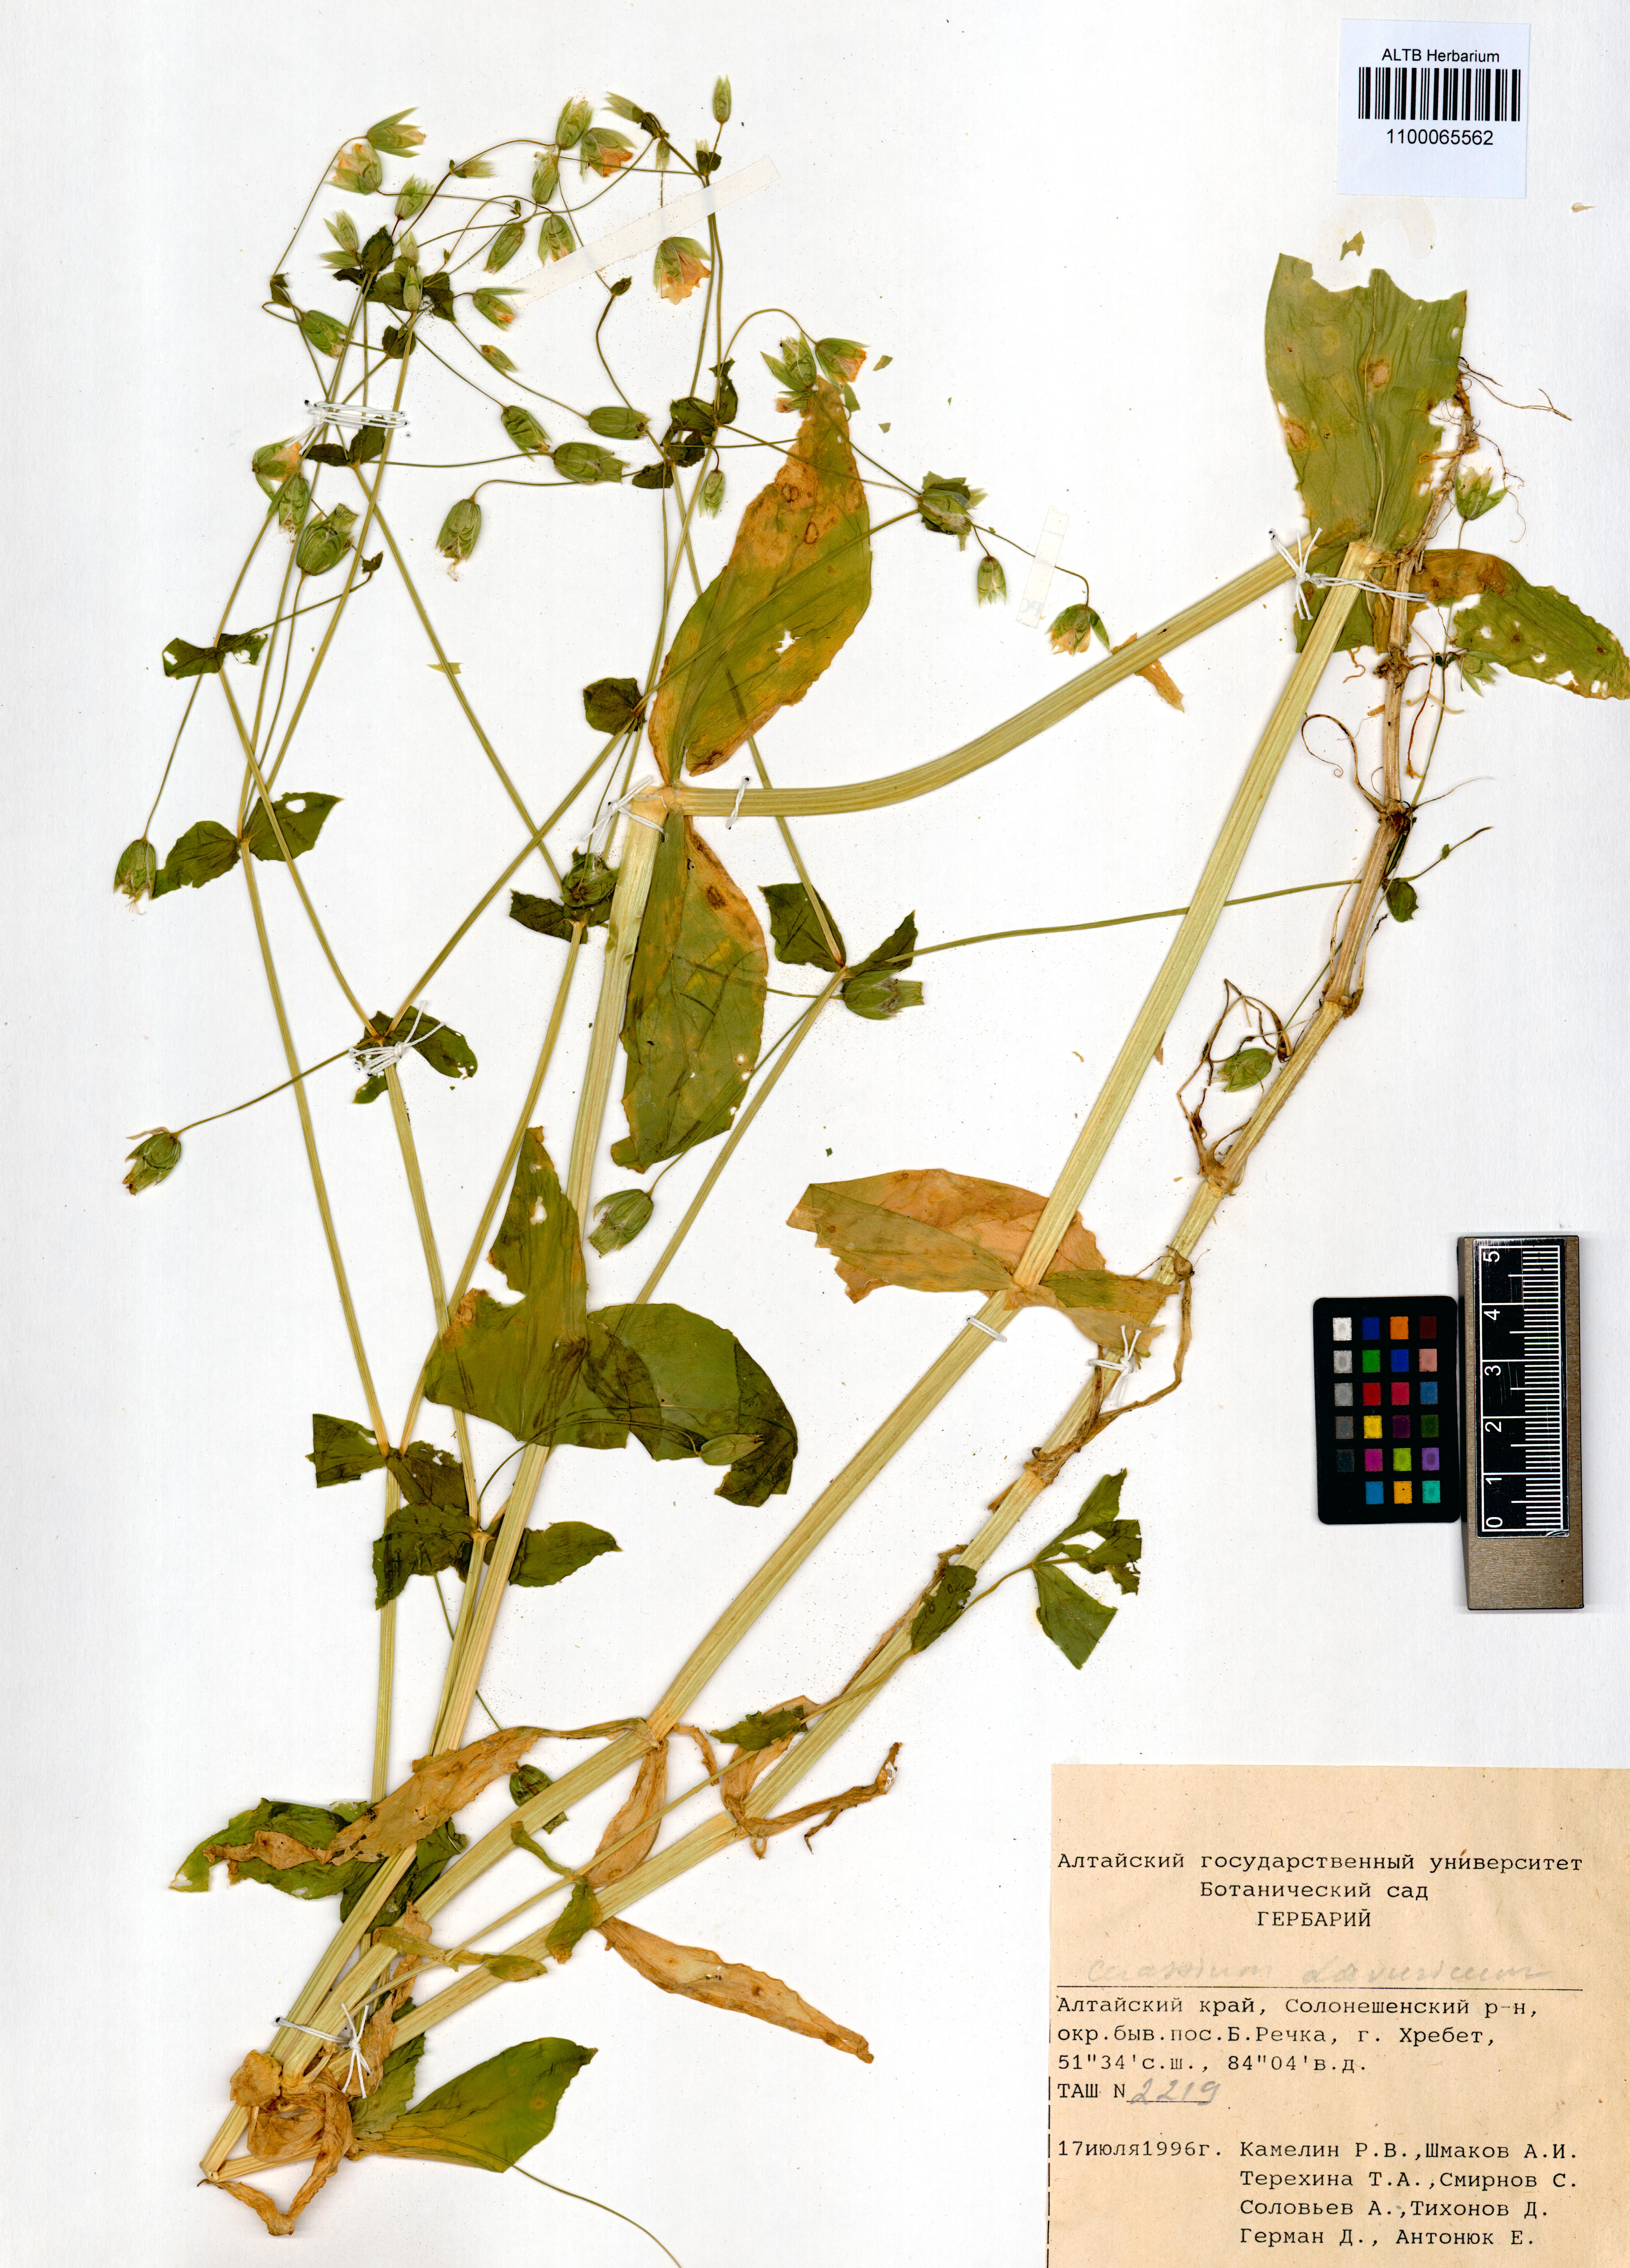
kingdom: Plantae
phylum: Tracheophyta
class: Magnoliopsida
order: Caryophyllales
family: Caryophyllaceae
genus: Cerastium
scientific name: Cerastium davuricum
